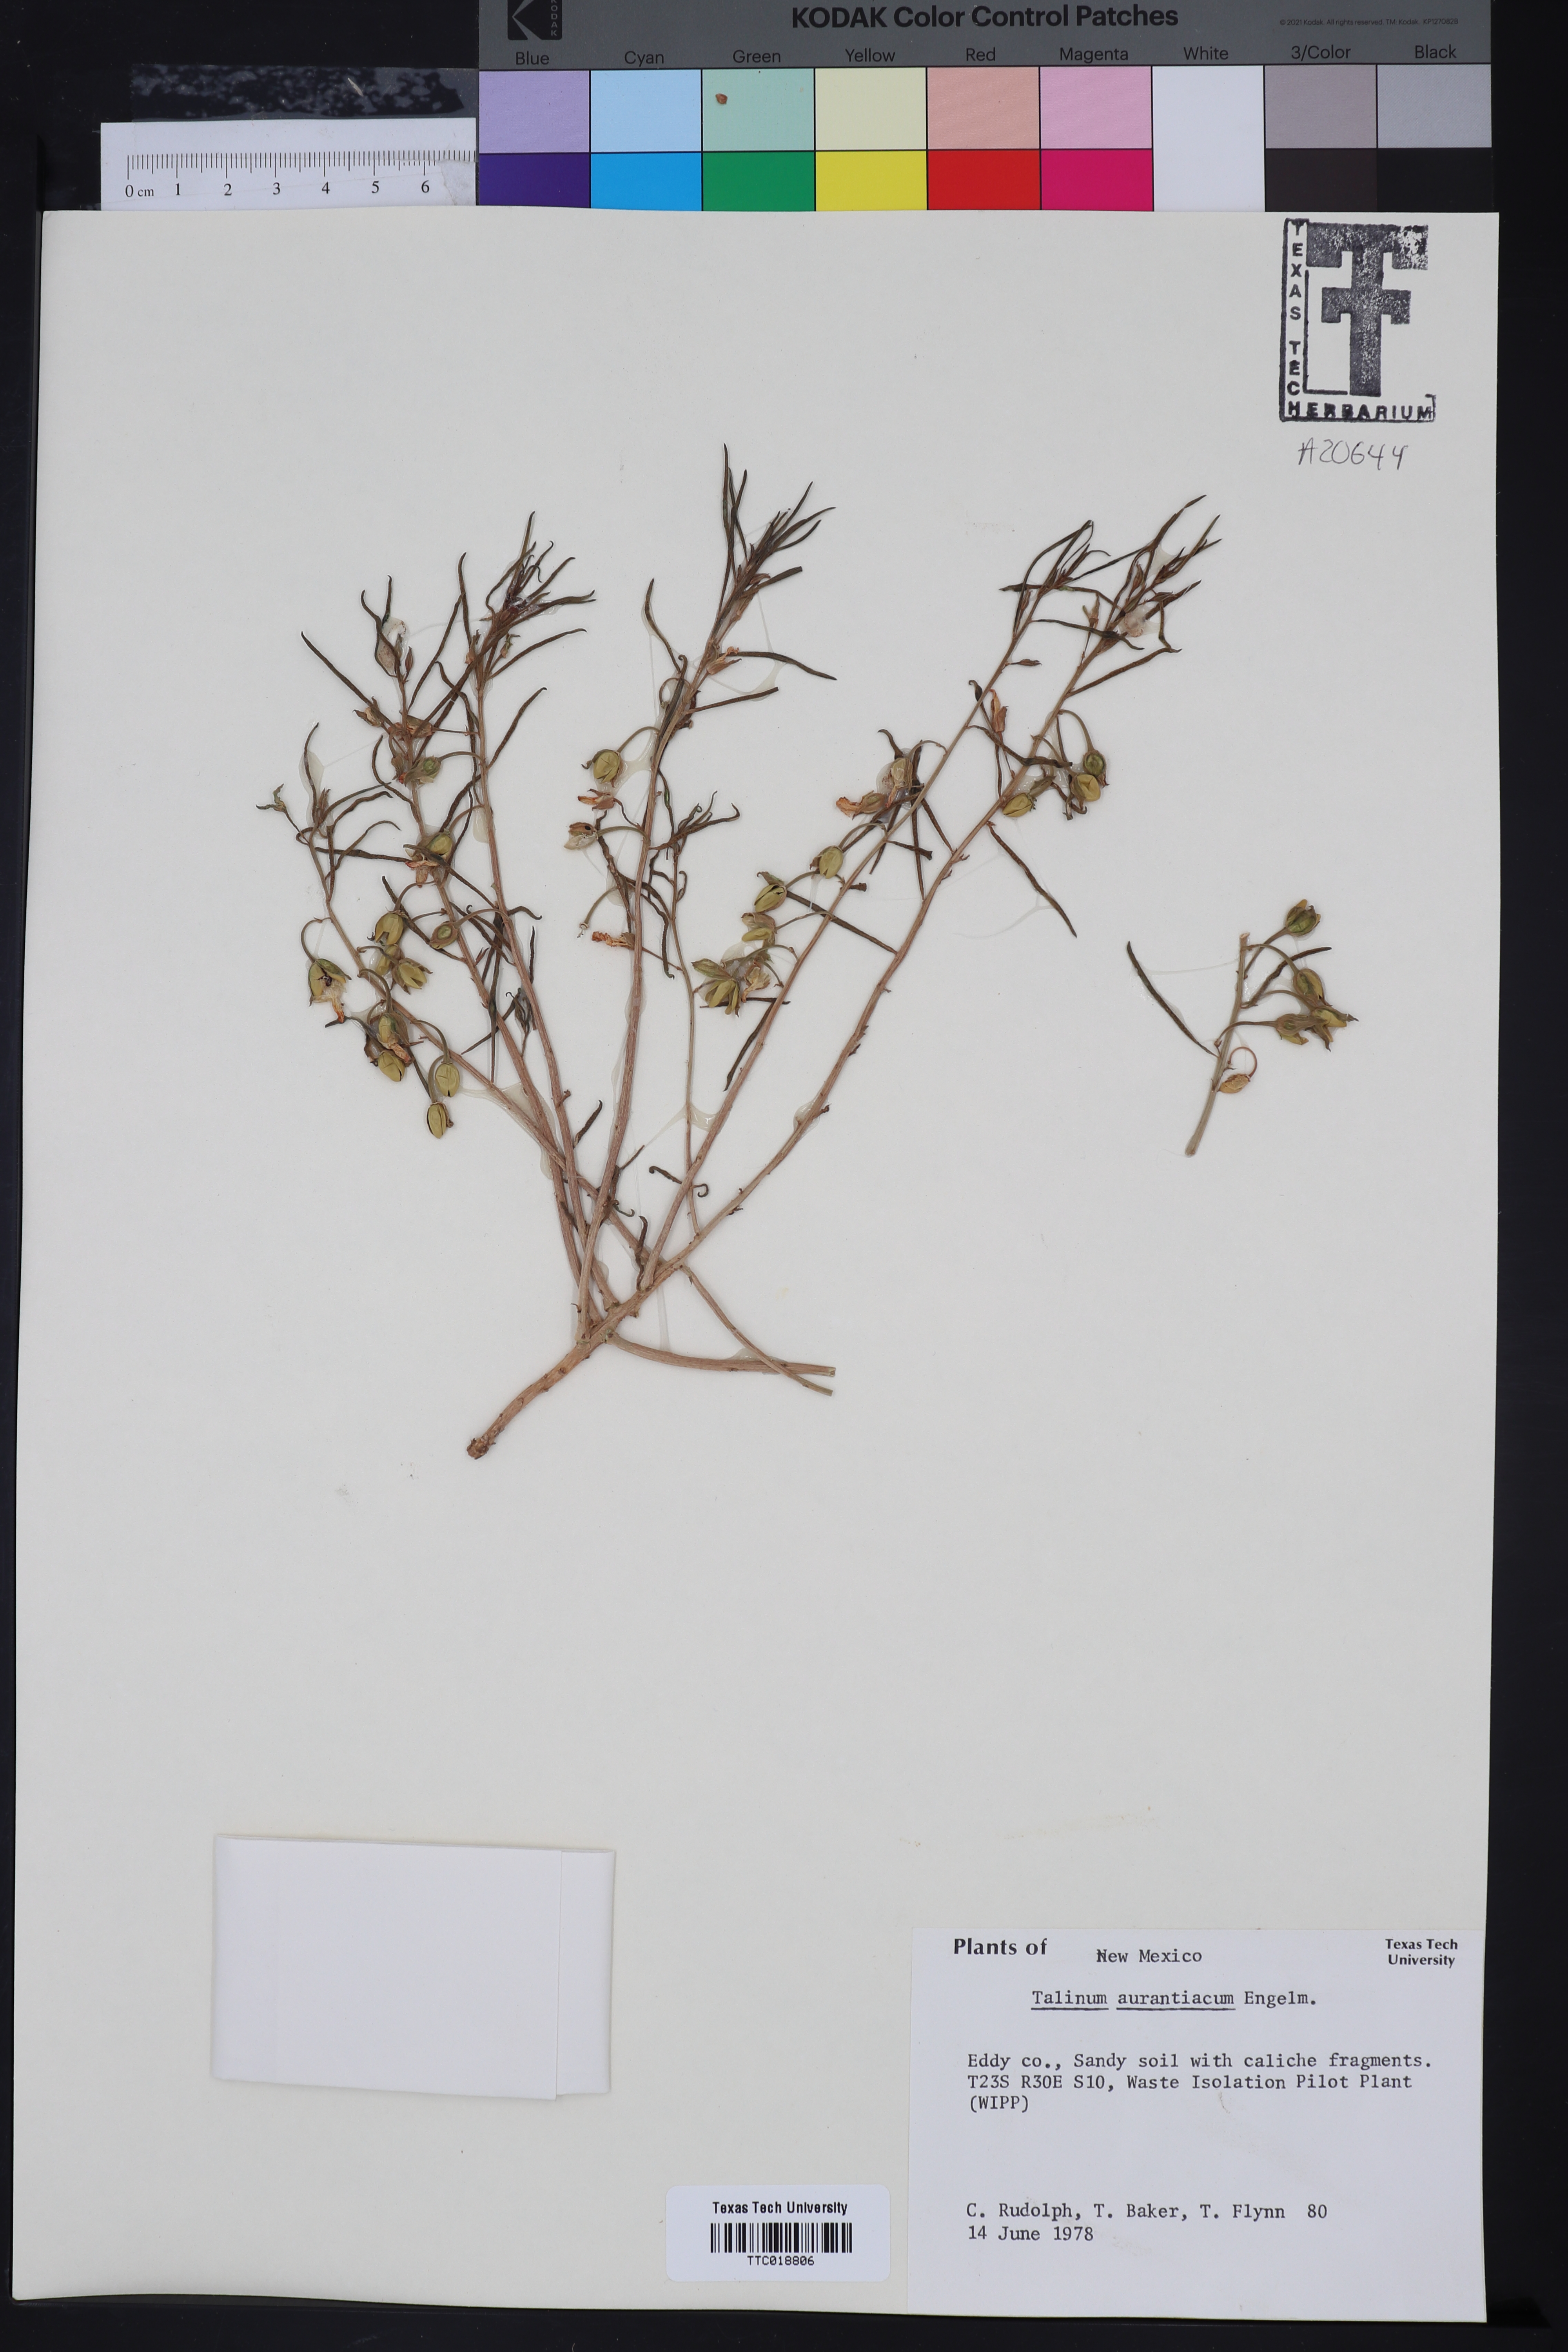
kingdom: Plantae
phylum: Tracheophyta
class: Magnoliopsida
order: Caryophyllales
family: Montiaceae
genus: Phemeranthus
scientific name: Phemeranthus aurantiacus
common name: Orange fameflower
